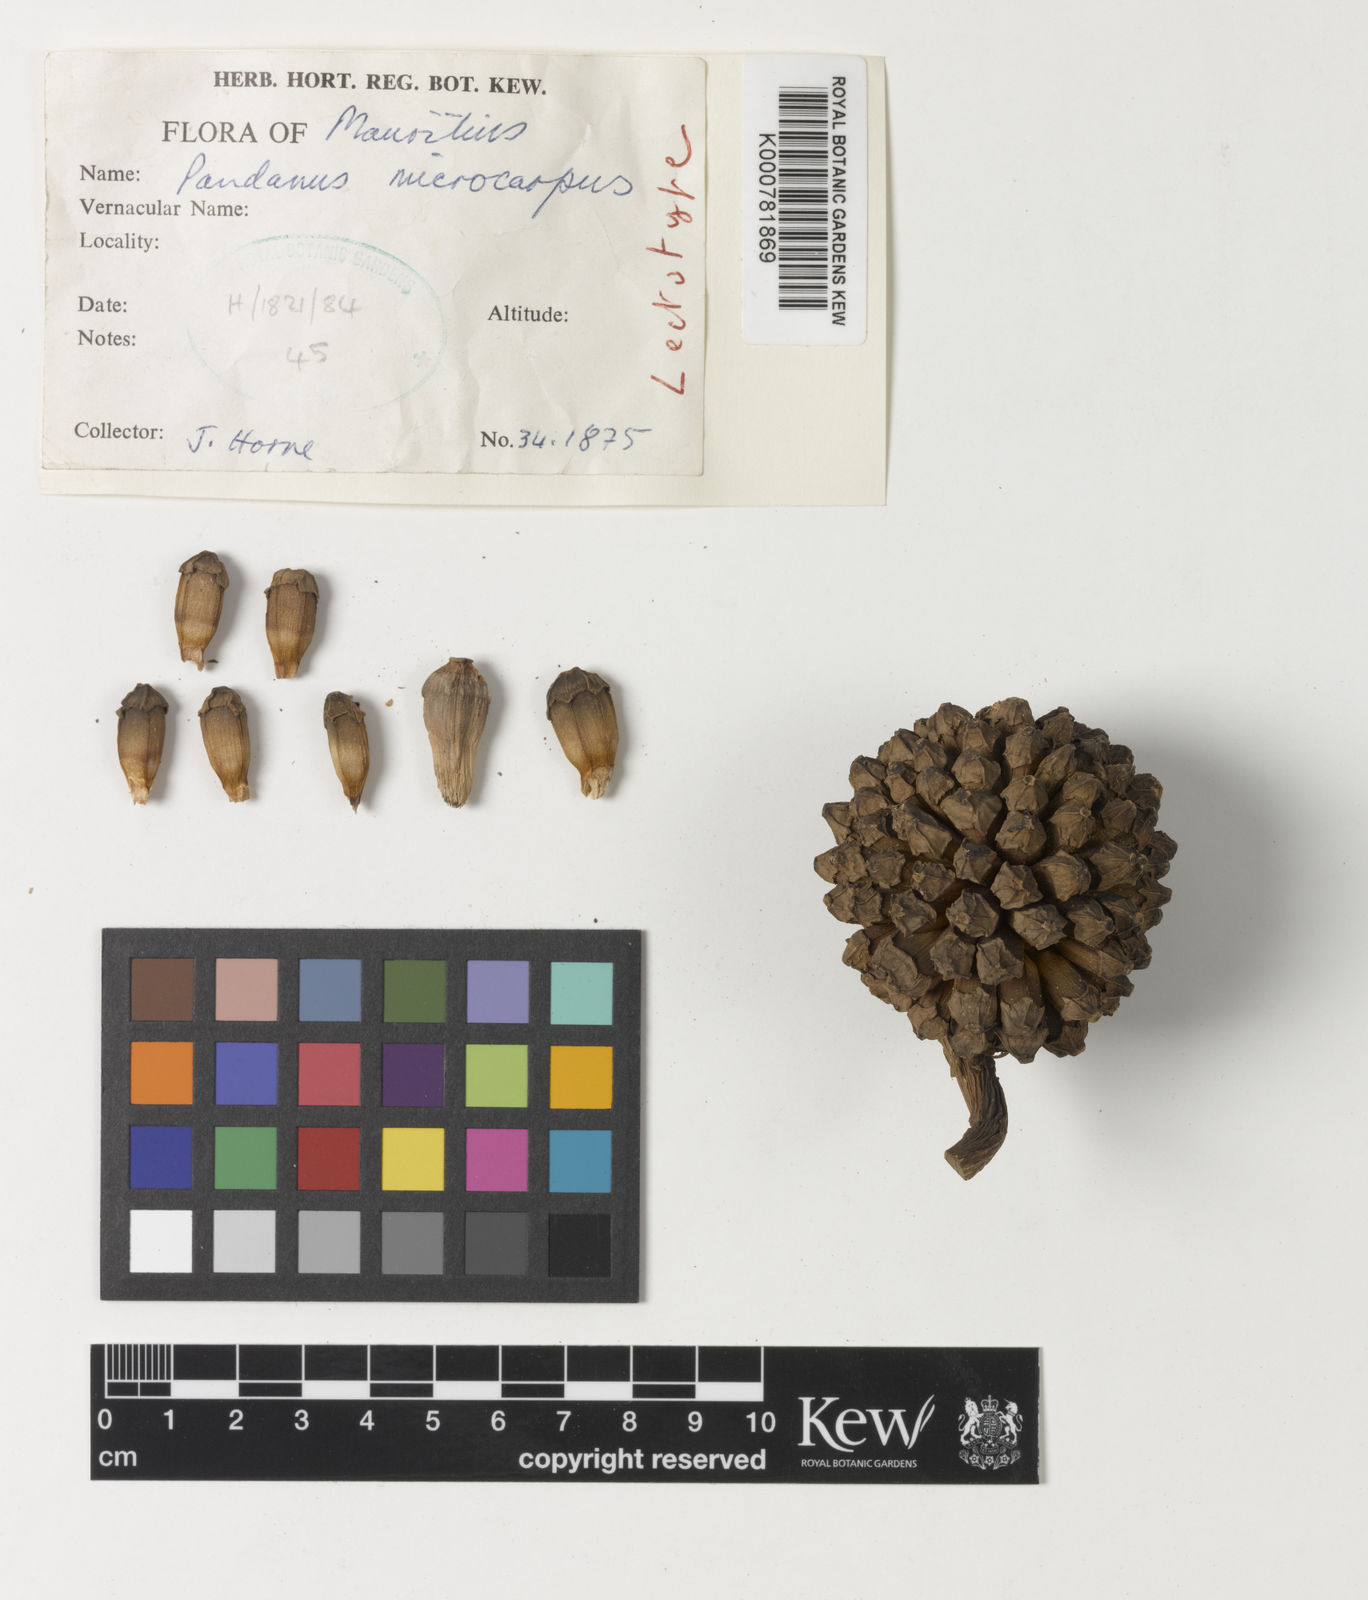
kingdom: Plantae
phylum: Tracheophyta
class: Liliopsida
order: Pandanales
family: Pandanaceae
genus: Pandanus
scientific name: Pandanus microcarpus
